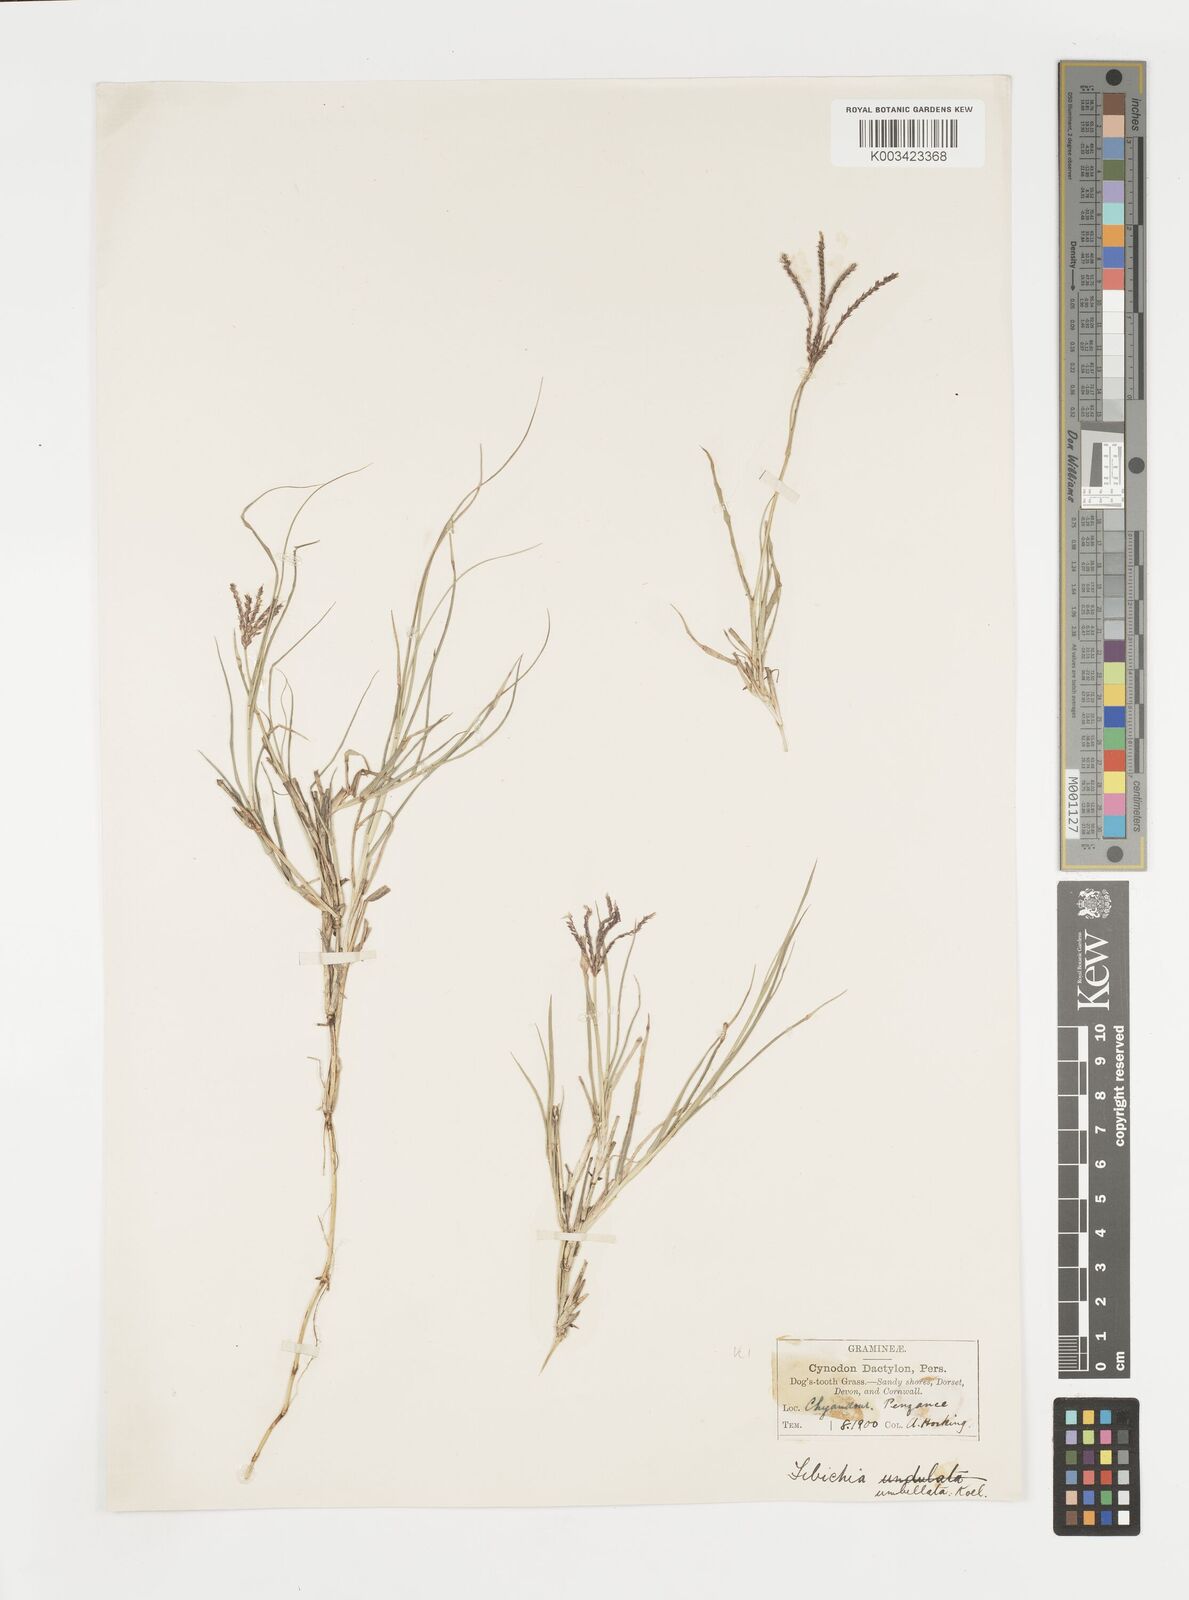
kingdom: Plantae
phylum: Tracheophyta
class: Liliopsida
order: Poales
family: Poaceae
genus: Cynodon
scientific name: Cynodon dactylon
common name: Bermuda grass
